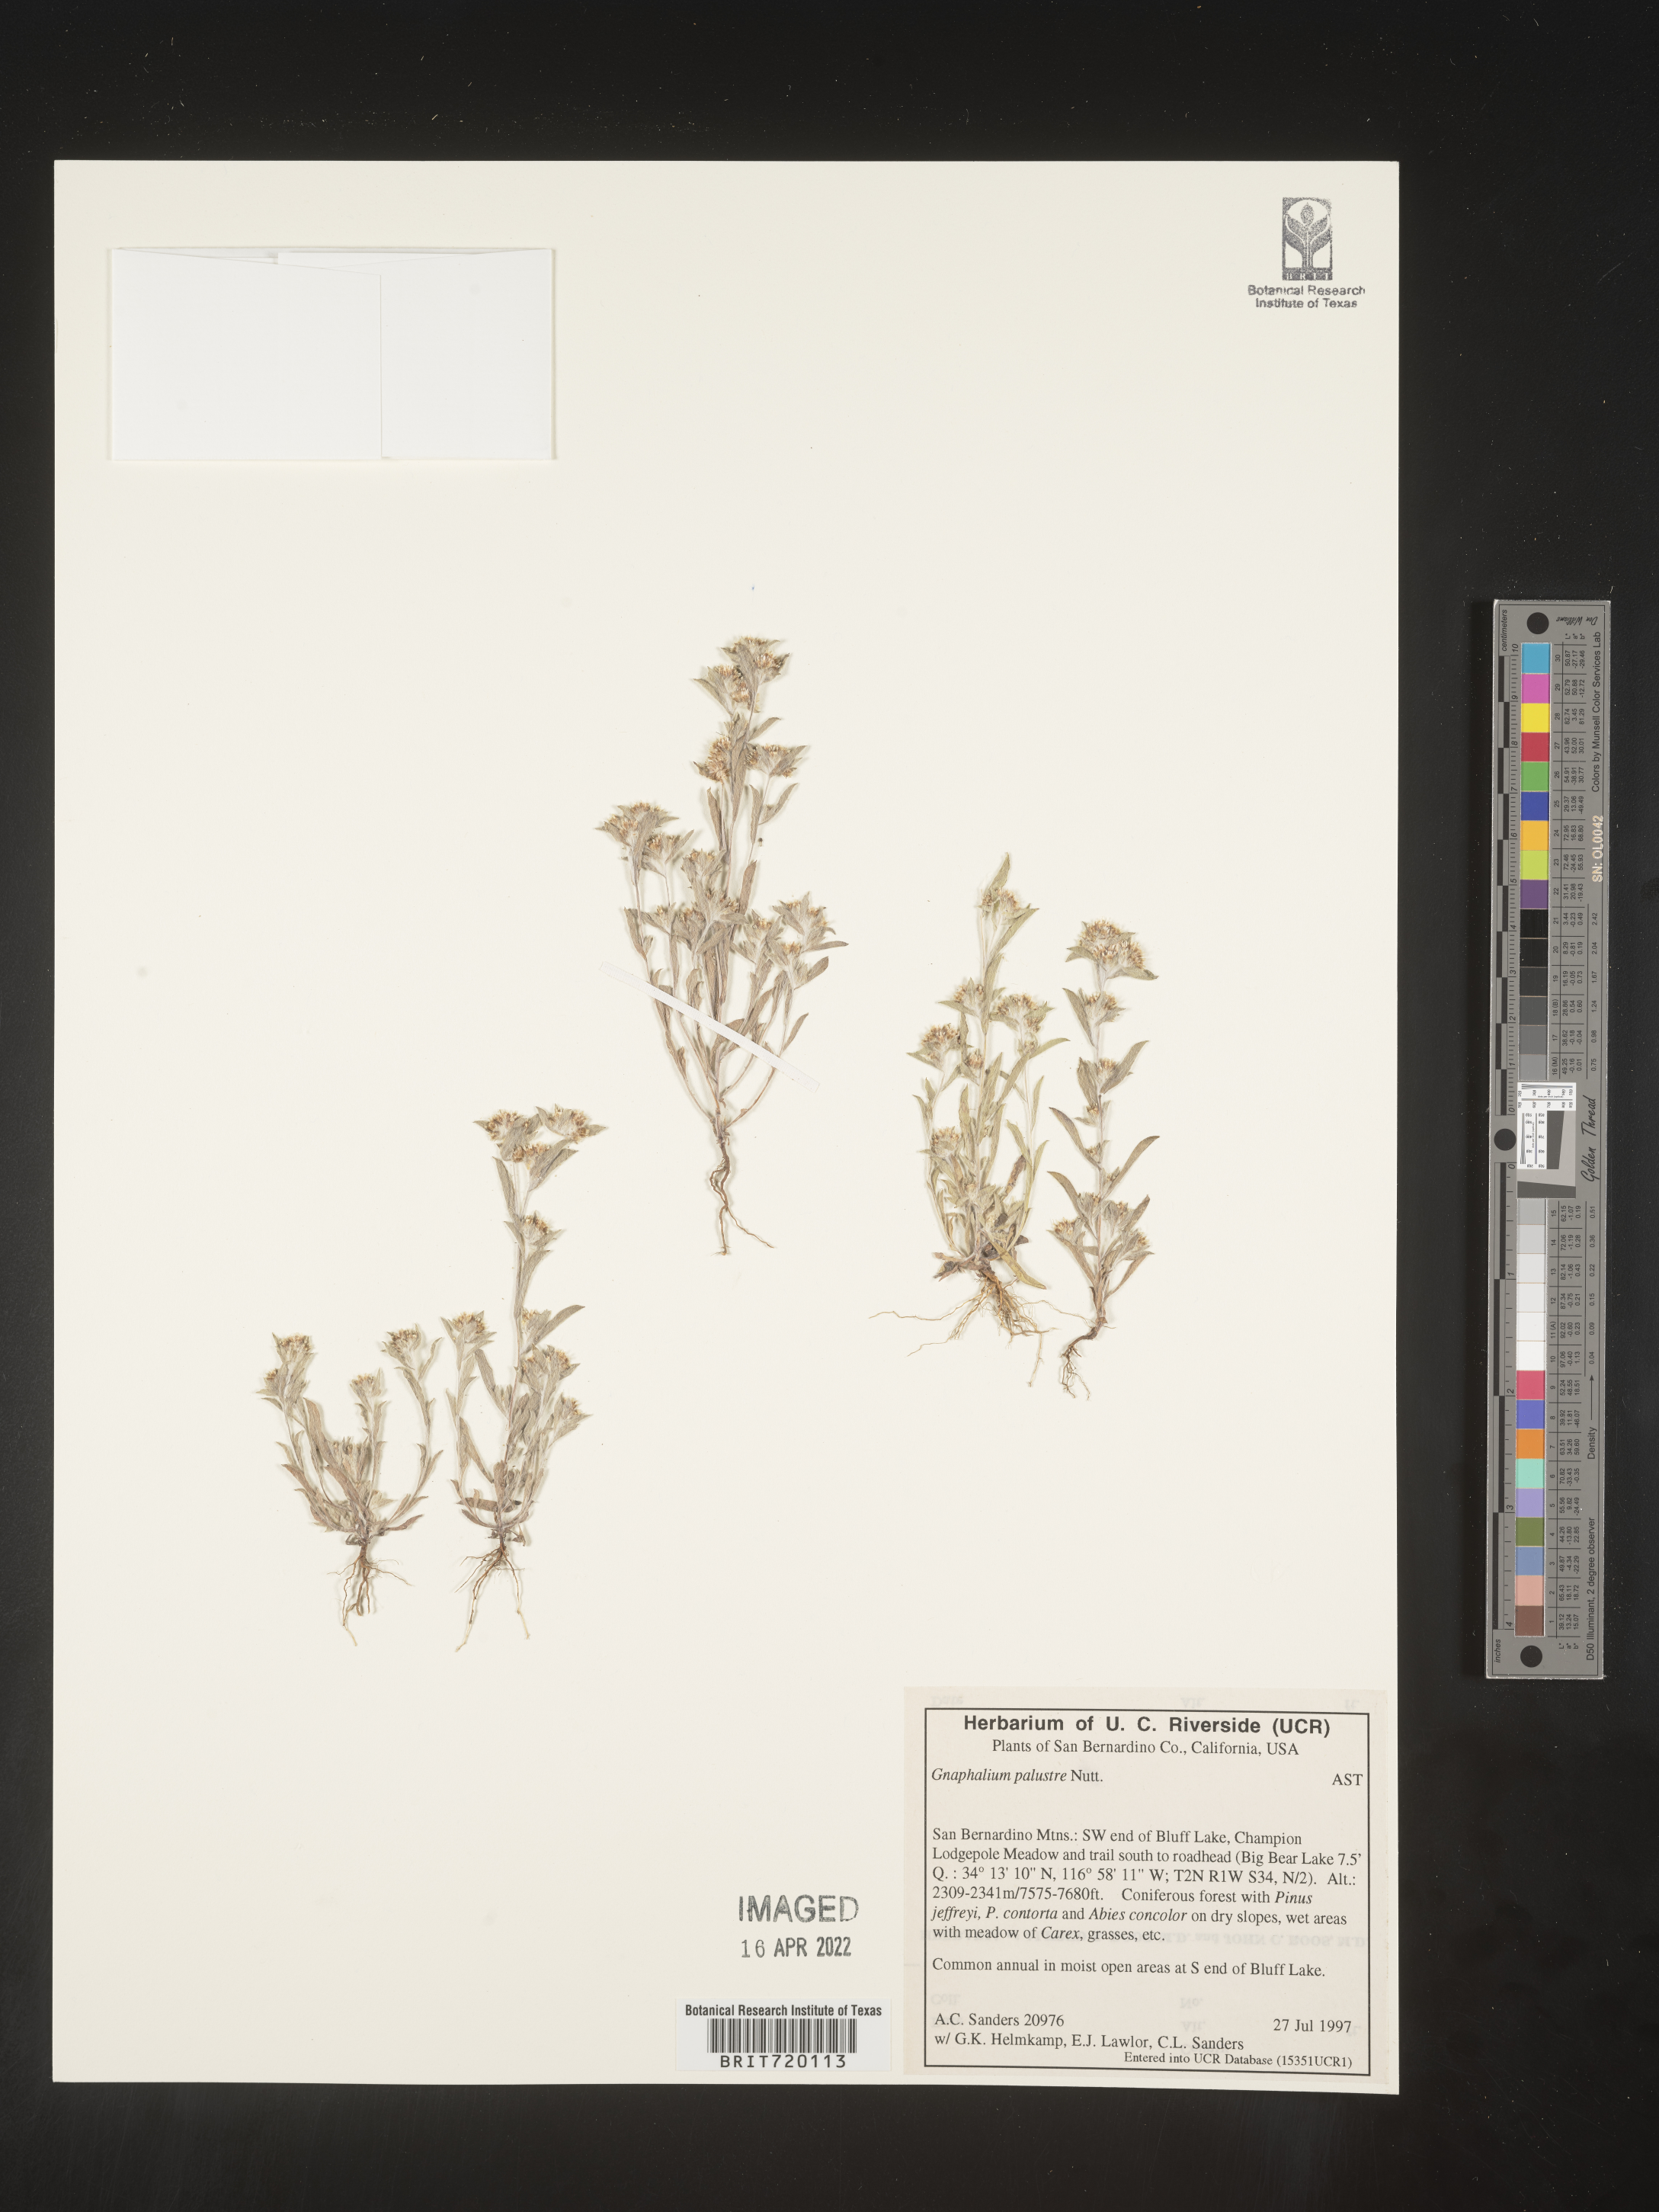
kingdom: Plantae
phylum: Tracheophyta
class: Magnoliopsida
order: Asterales
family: Asteraceae
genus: Gnaphalium
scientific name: Gnaphalium palustre
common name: Western marsh cudweed
